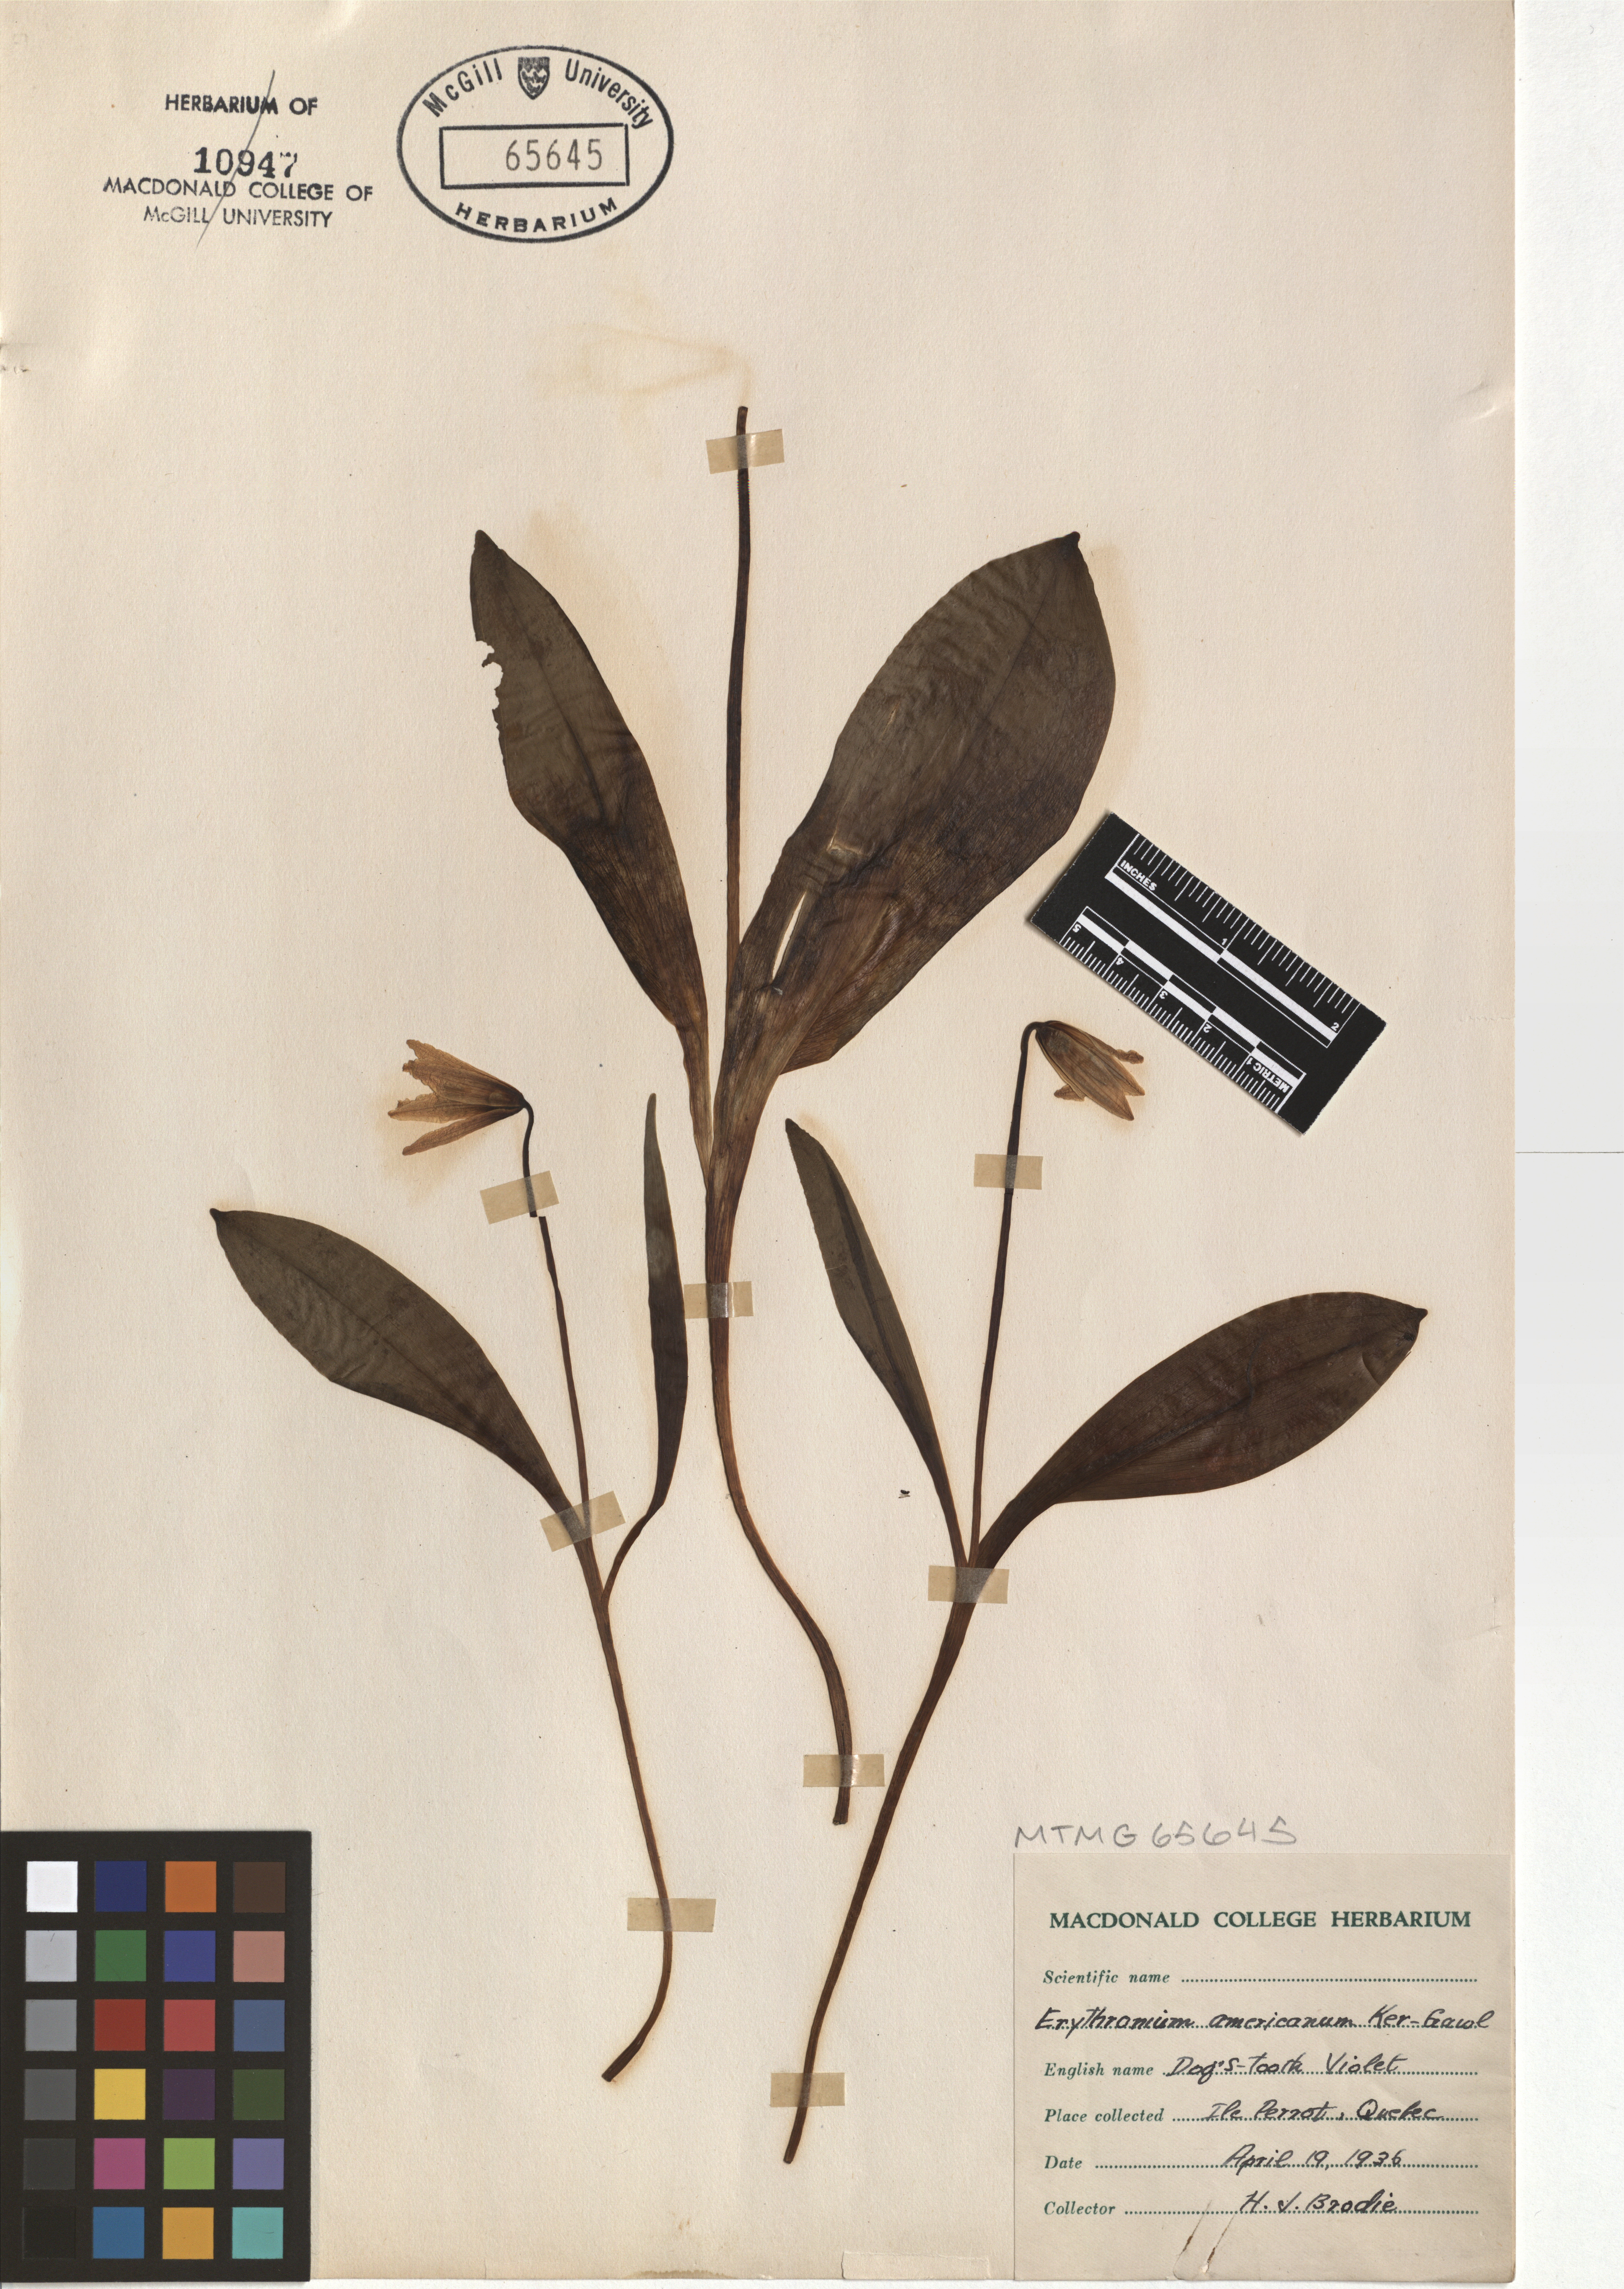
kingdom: Plantae
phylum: Tracheophyta
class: Liliopsida
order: Liliales
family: Liliaceae
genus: Erythronium
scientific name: Erythronium americanum
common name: Yellow adder's-tongue
